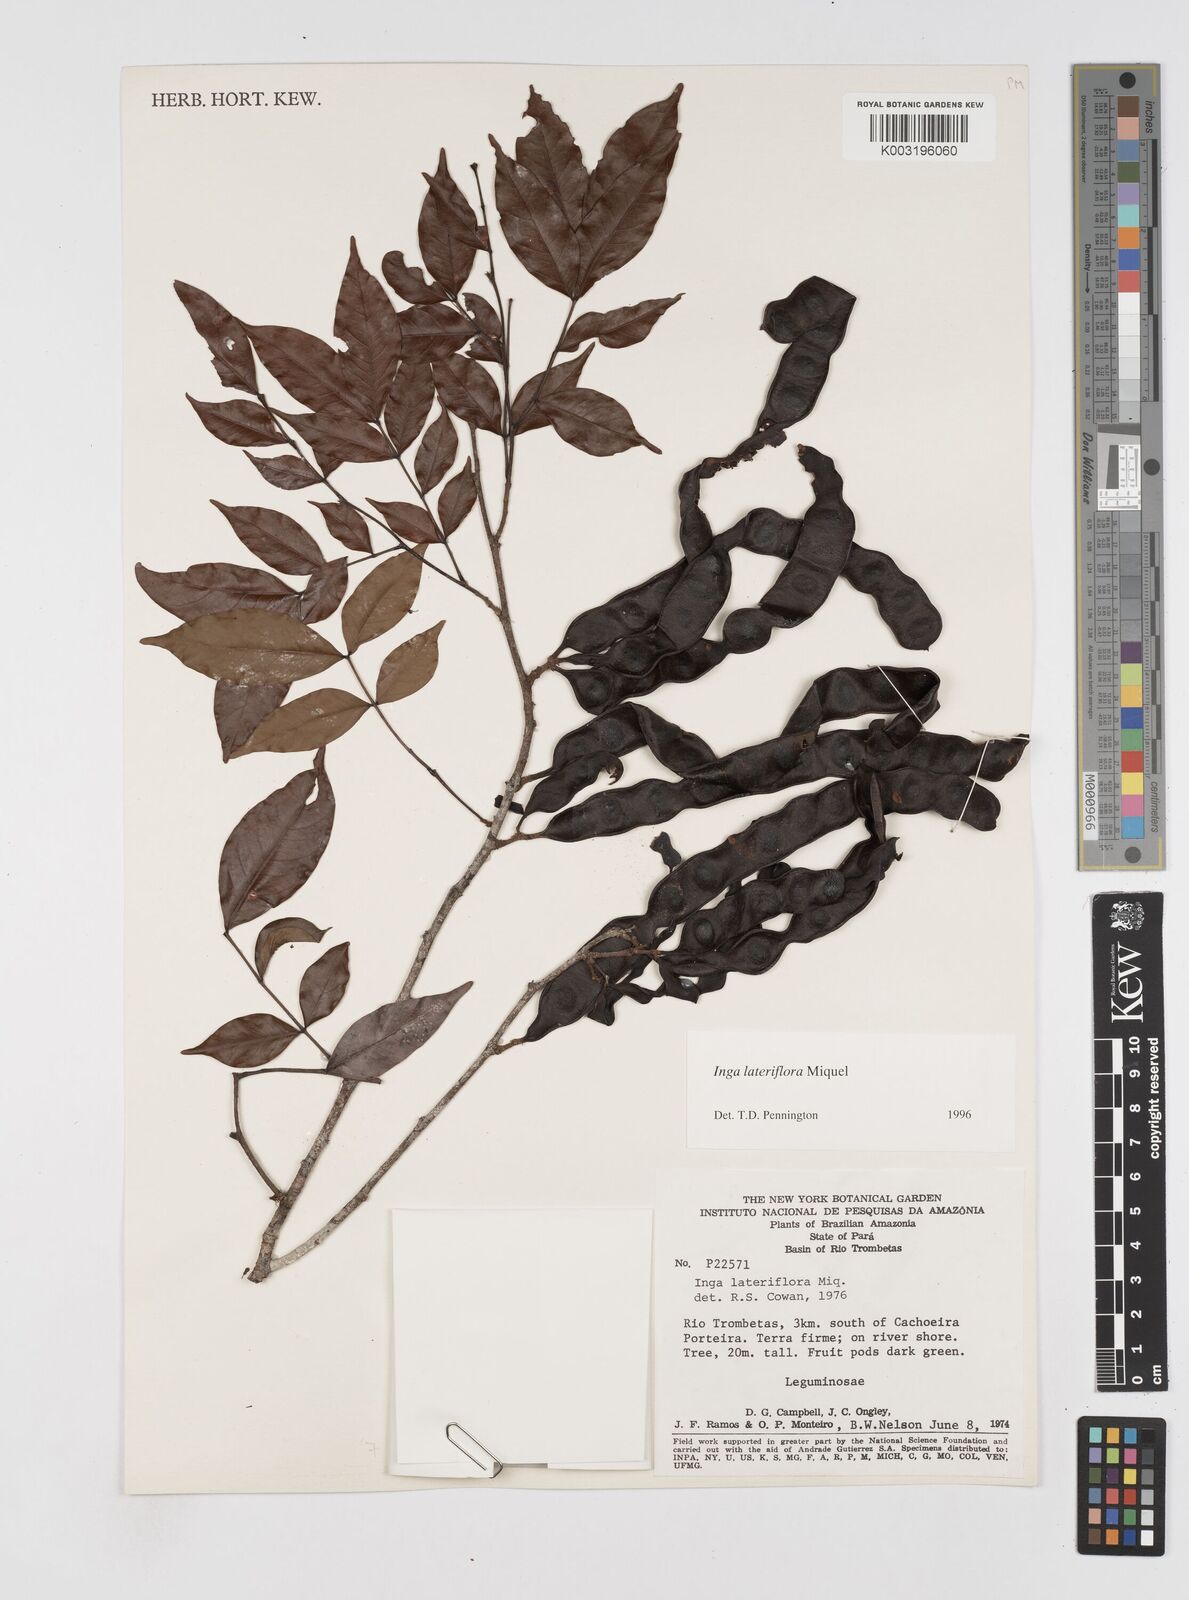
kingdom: Plantae
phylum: Tracheophyta
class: Magnoliopsida
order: Fabales
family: Fabaceae
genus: Inga
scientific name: Inga lateriflora
